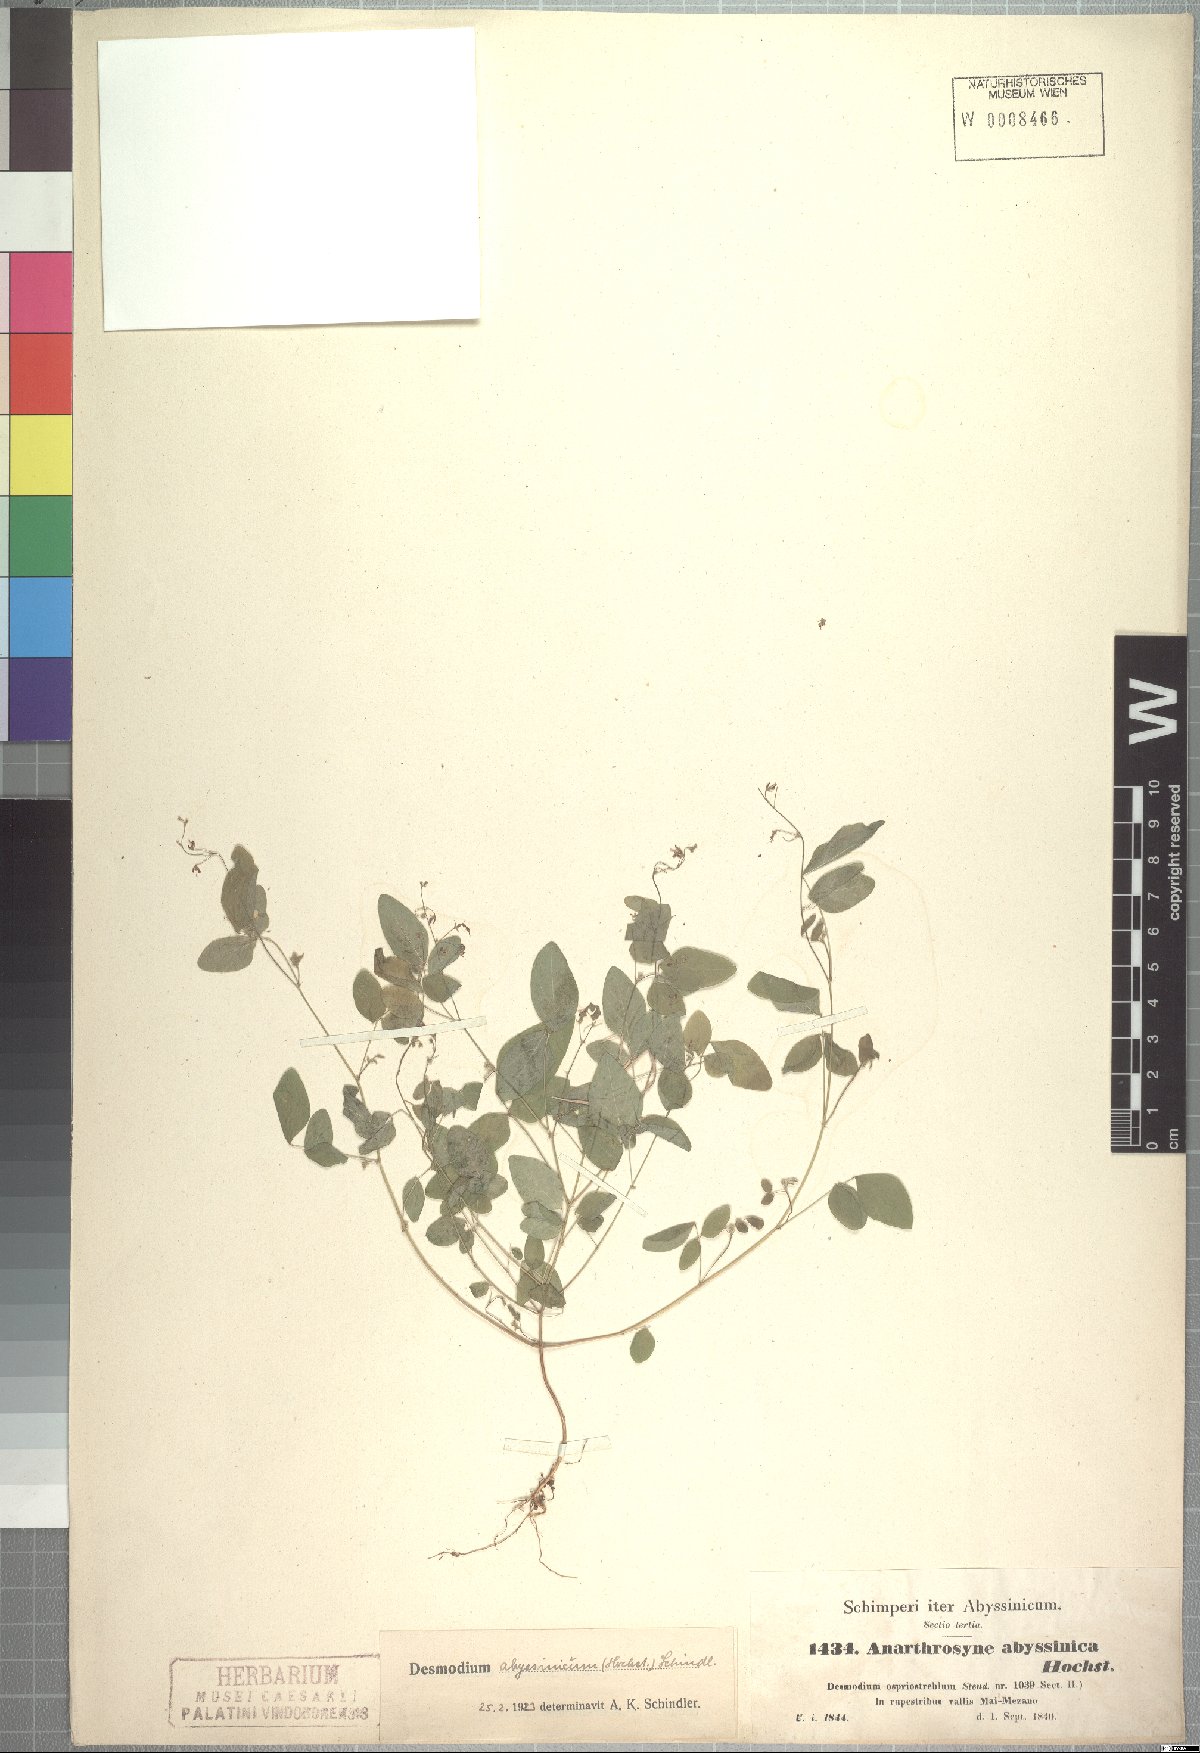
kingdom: Plantae
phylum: Tracheophyta
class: Magnoliopsida
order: Fabales
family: Fabaceae
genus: Desmodium
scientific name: Desmodium ospriostreblum
